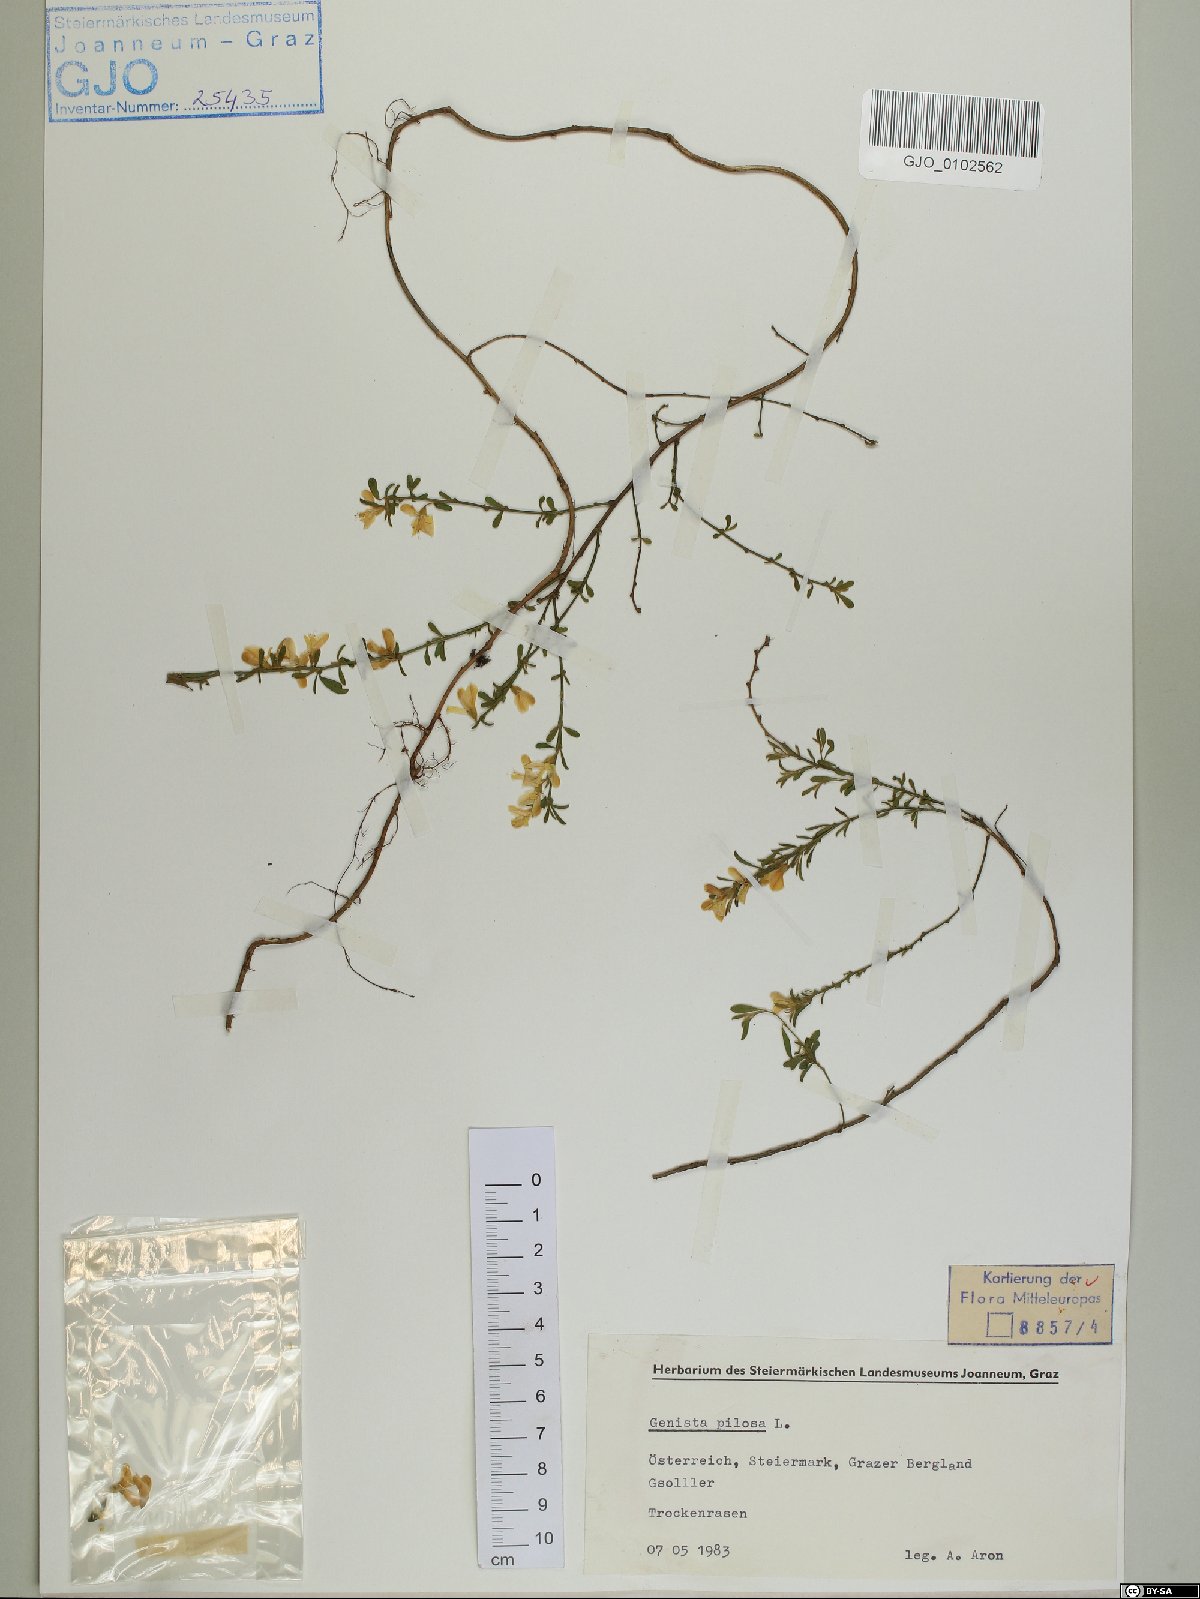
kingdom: Plantae
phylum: Tracheophyta
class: Magnoliopsida
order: Fabales
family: Fabaceae
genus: Genista
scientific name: Genista pilosa
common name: Hairy greenweed
